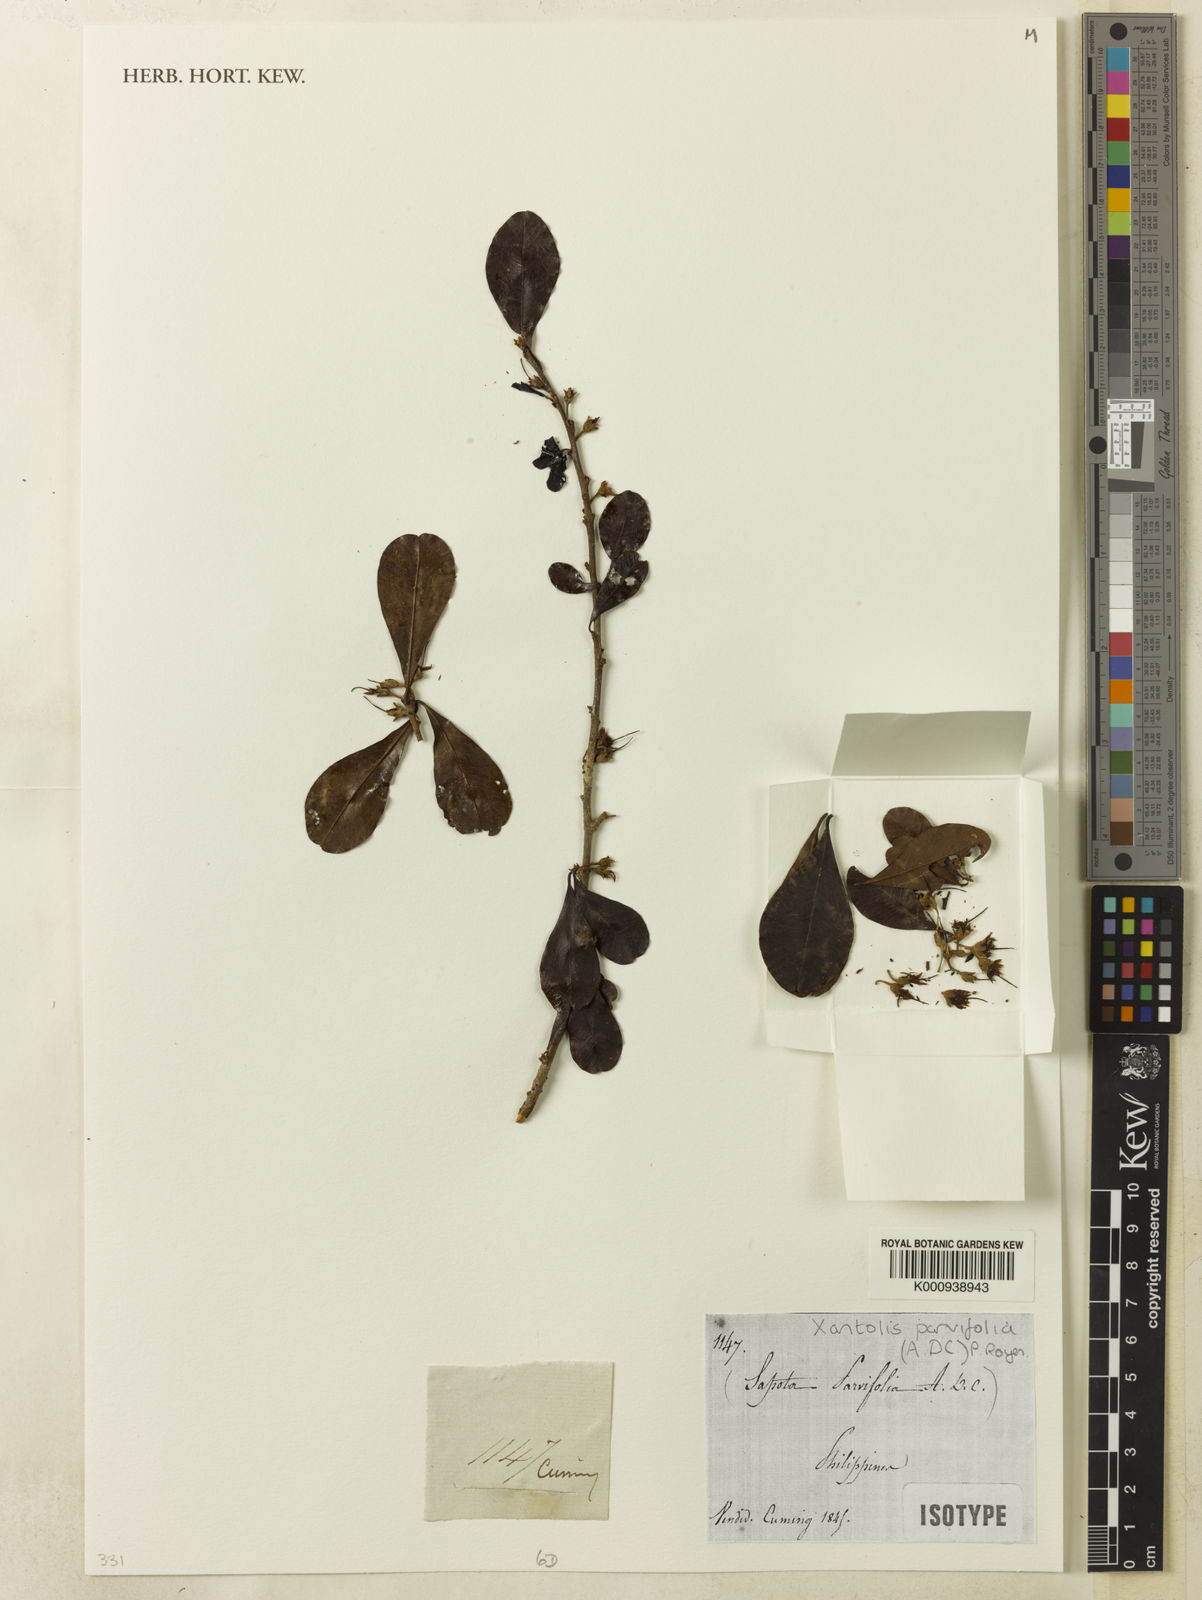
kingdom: Plantae
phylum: Tracheophyta
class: Magnoliopsida
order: Ericales
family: Sapotaceae
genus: Xantolis
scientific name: Xantolis parvifolia
